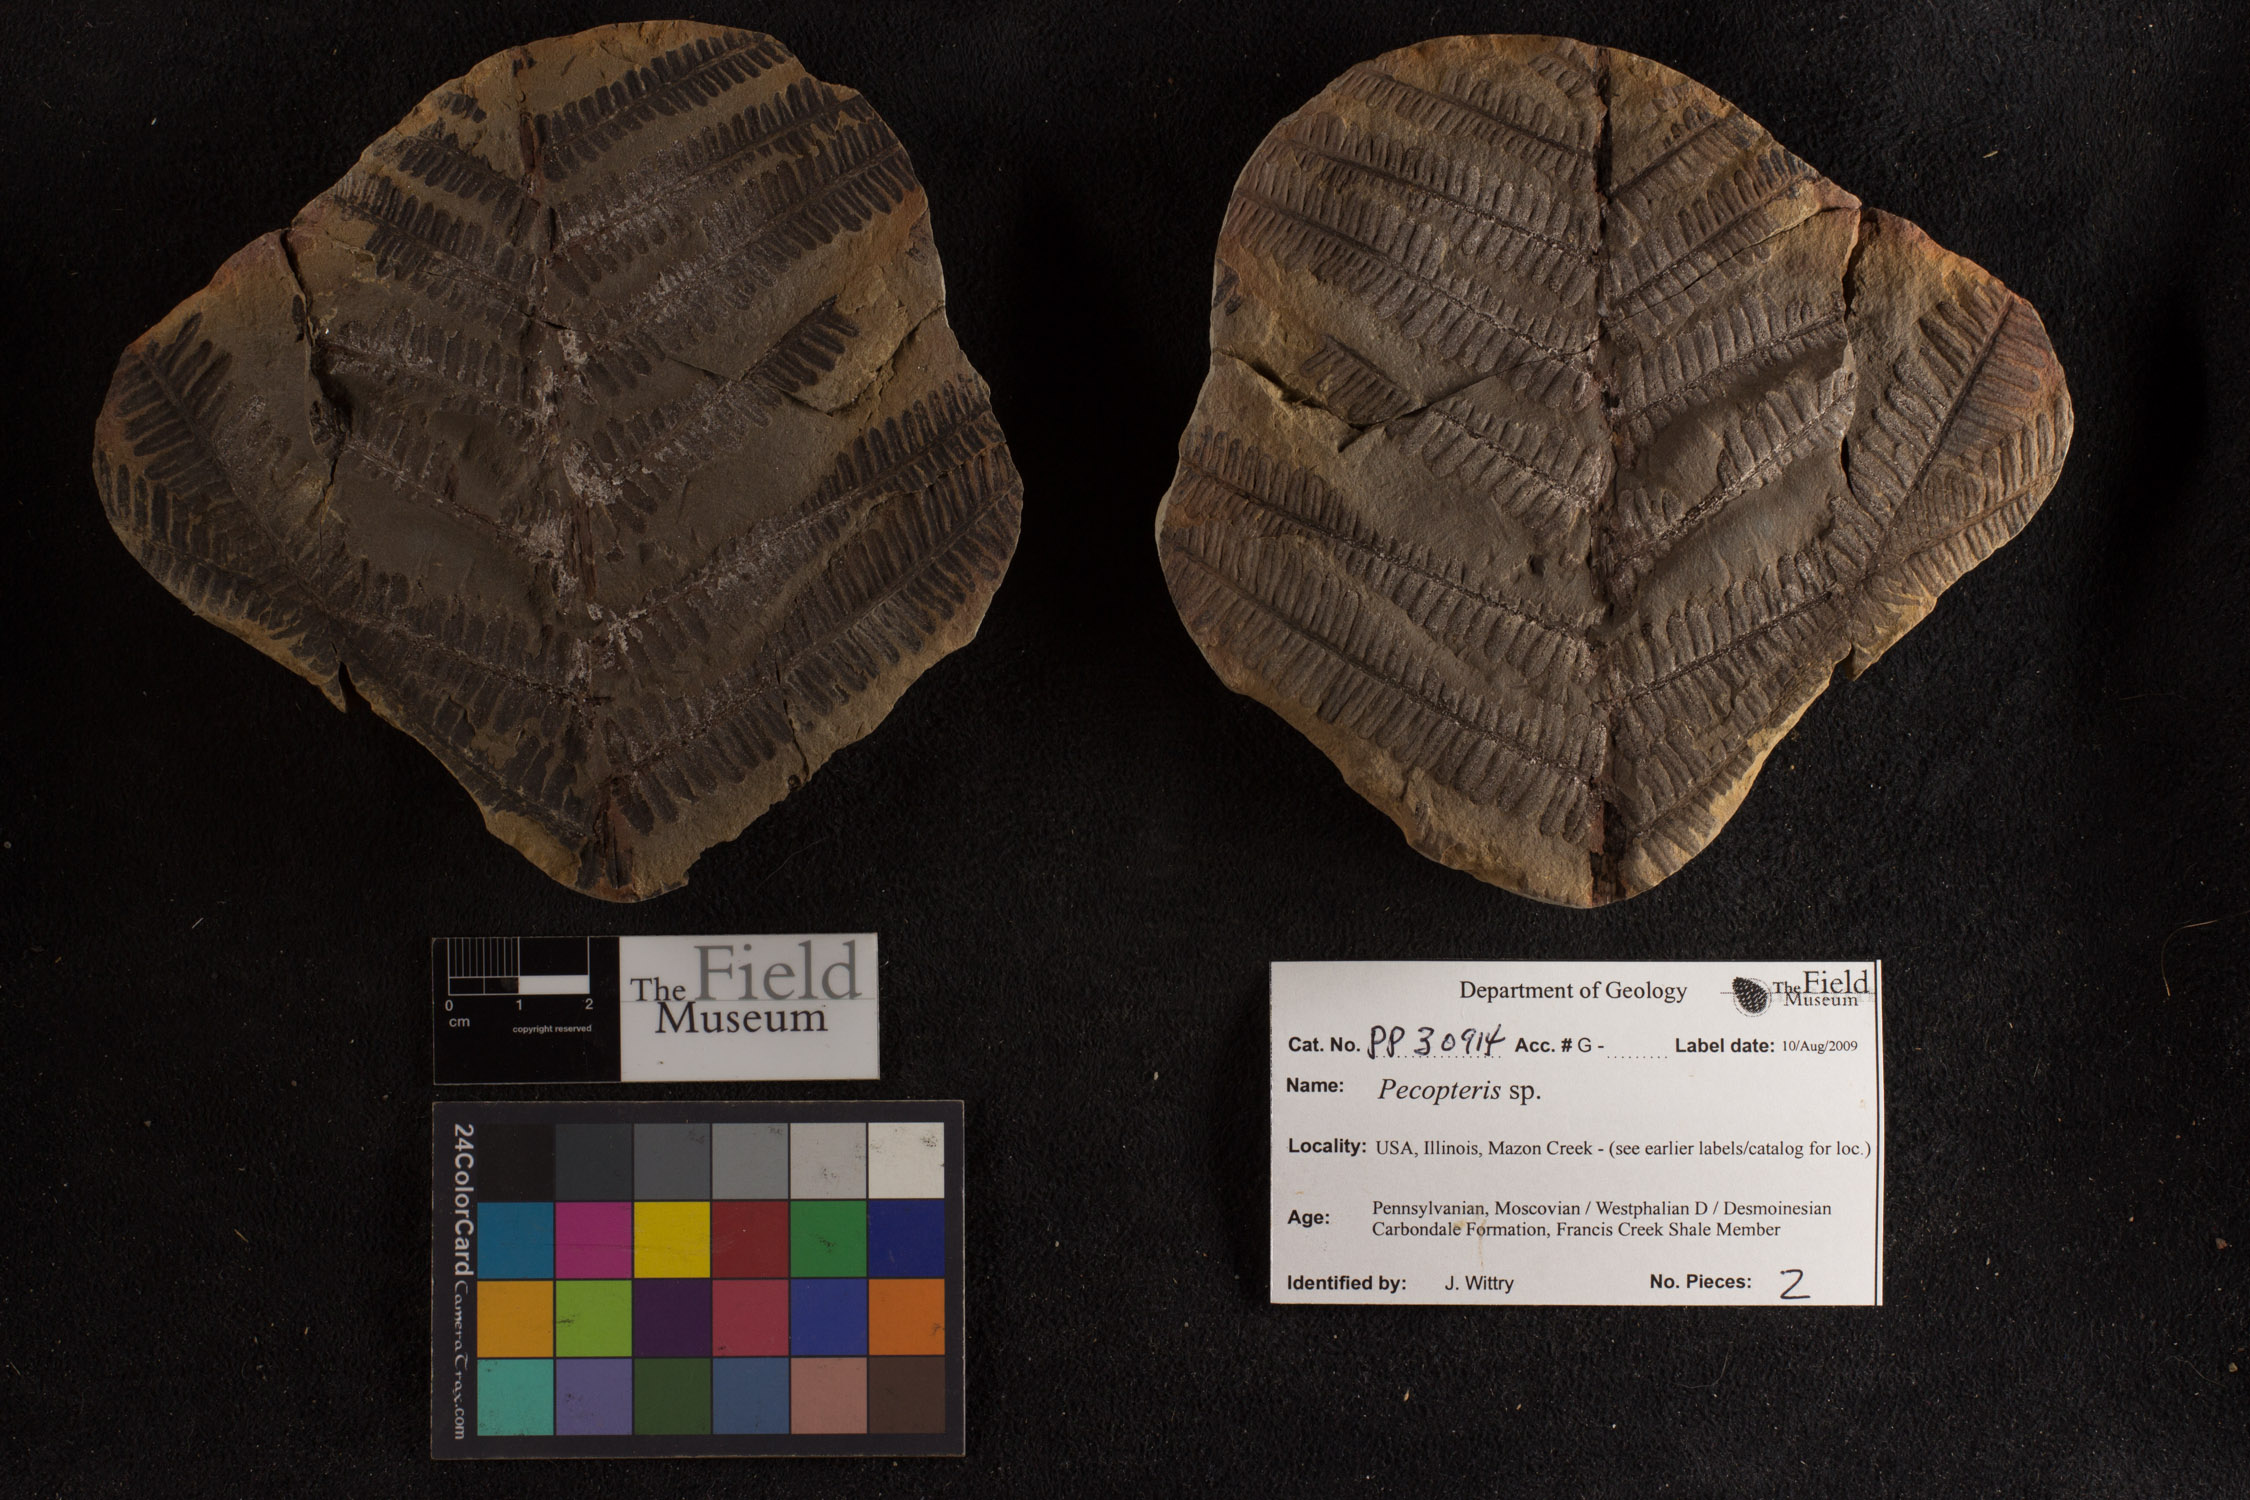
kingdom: Plantae
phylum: Tracheophyta
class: Polypodiopsida
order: Marattiales
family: Asterothecaceae
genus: Pecopteris
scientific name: Pecopteris
